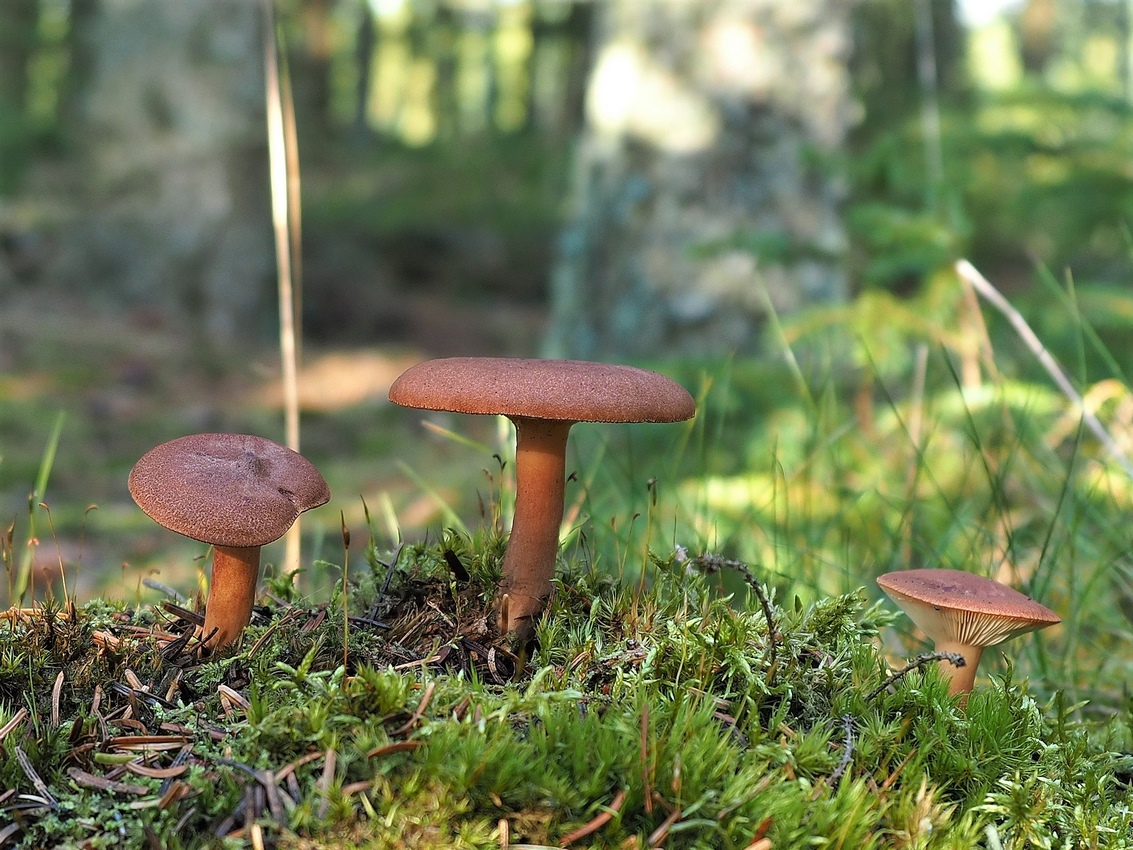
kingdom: Fungi
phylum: Basidiomycota
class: Agaricomycetes
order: Russulales
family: Russulaceae
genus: Lactarius
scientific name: Lactarius rufus
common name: rødbrun mælkehat
